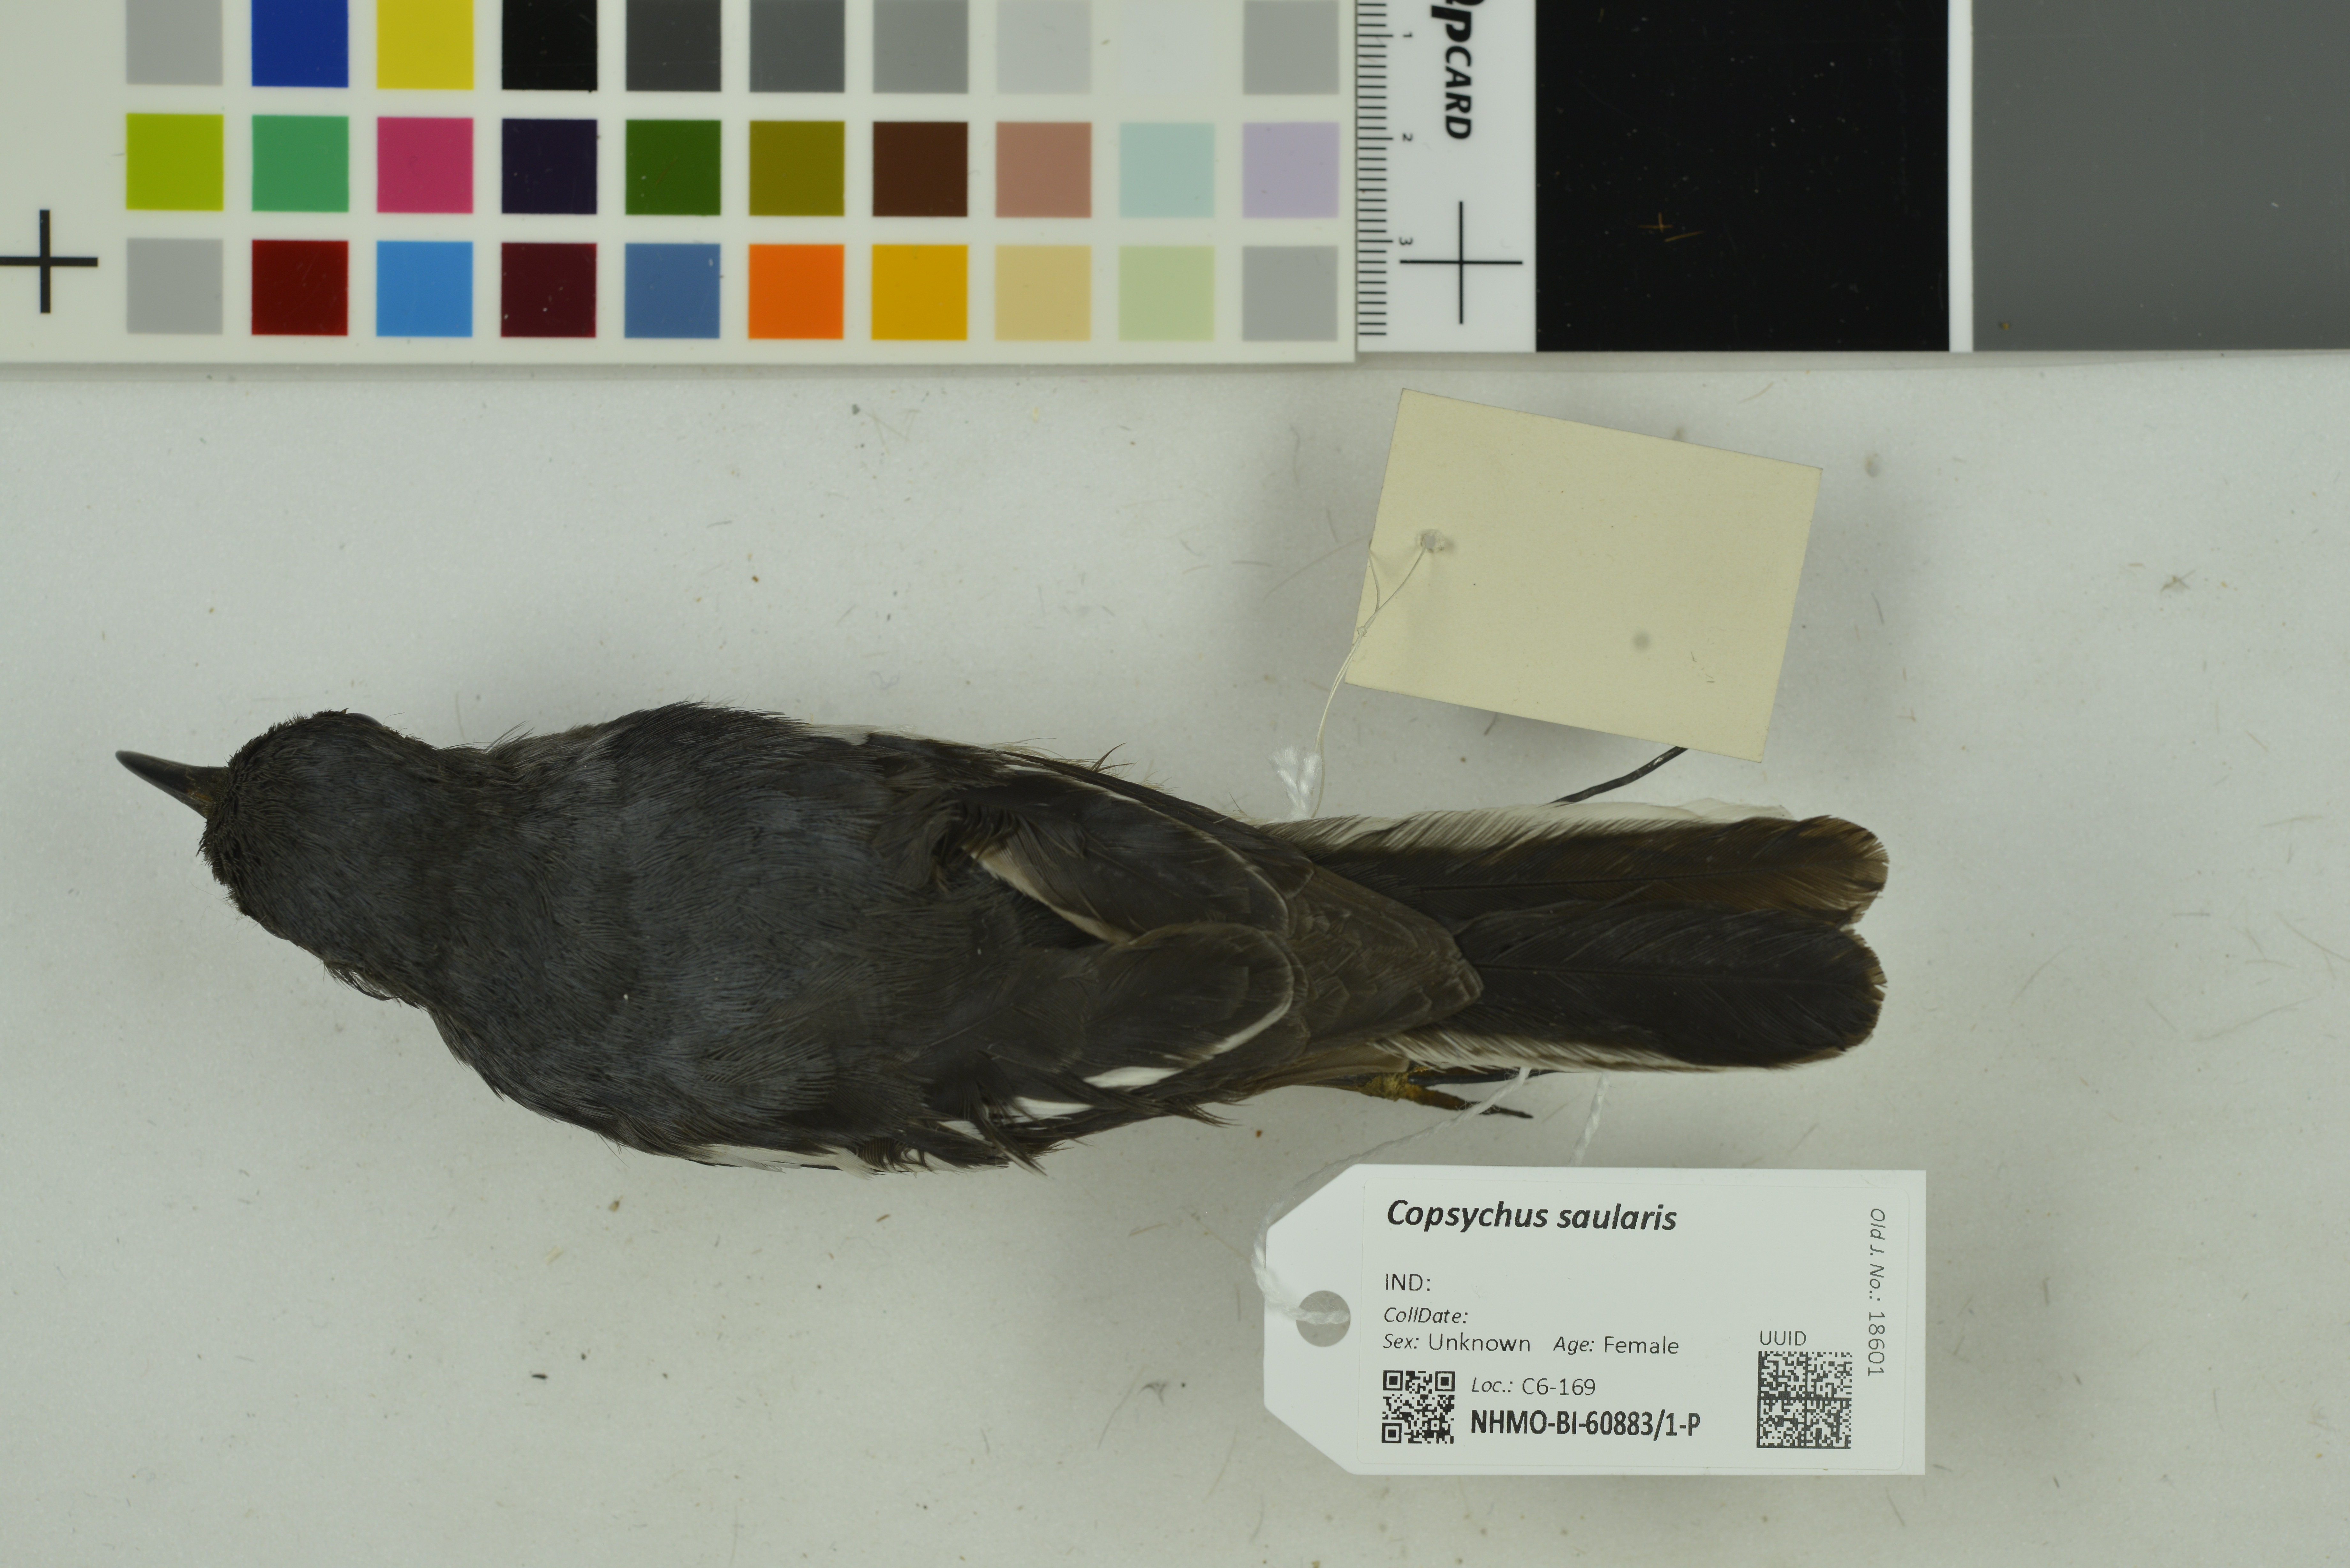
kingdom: Animalia
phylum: Chordata
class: Aves
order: Passeriformes
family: Muscicapidae
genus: Copsychus
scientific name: Copsychus saularis
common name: Oriental magpie-robin
